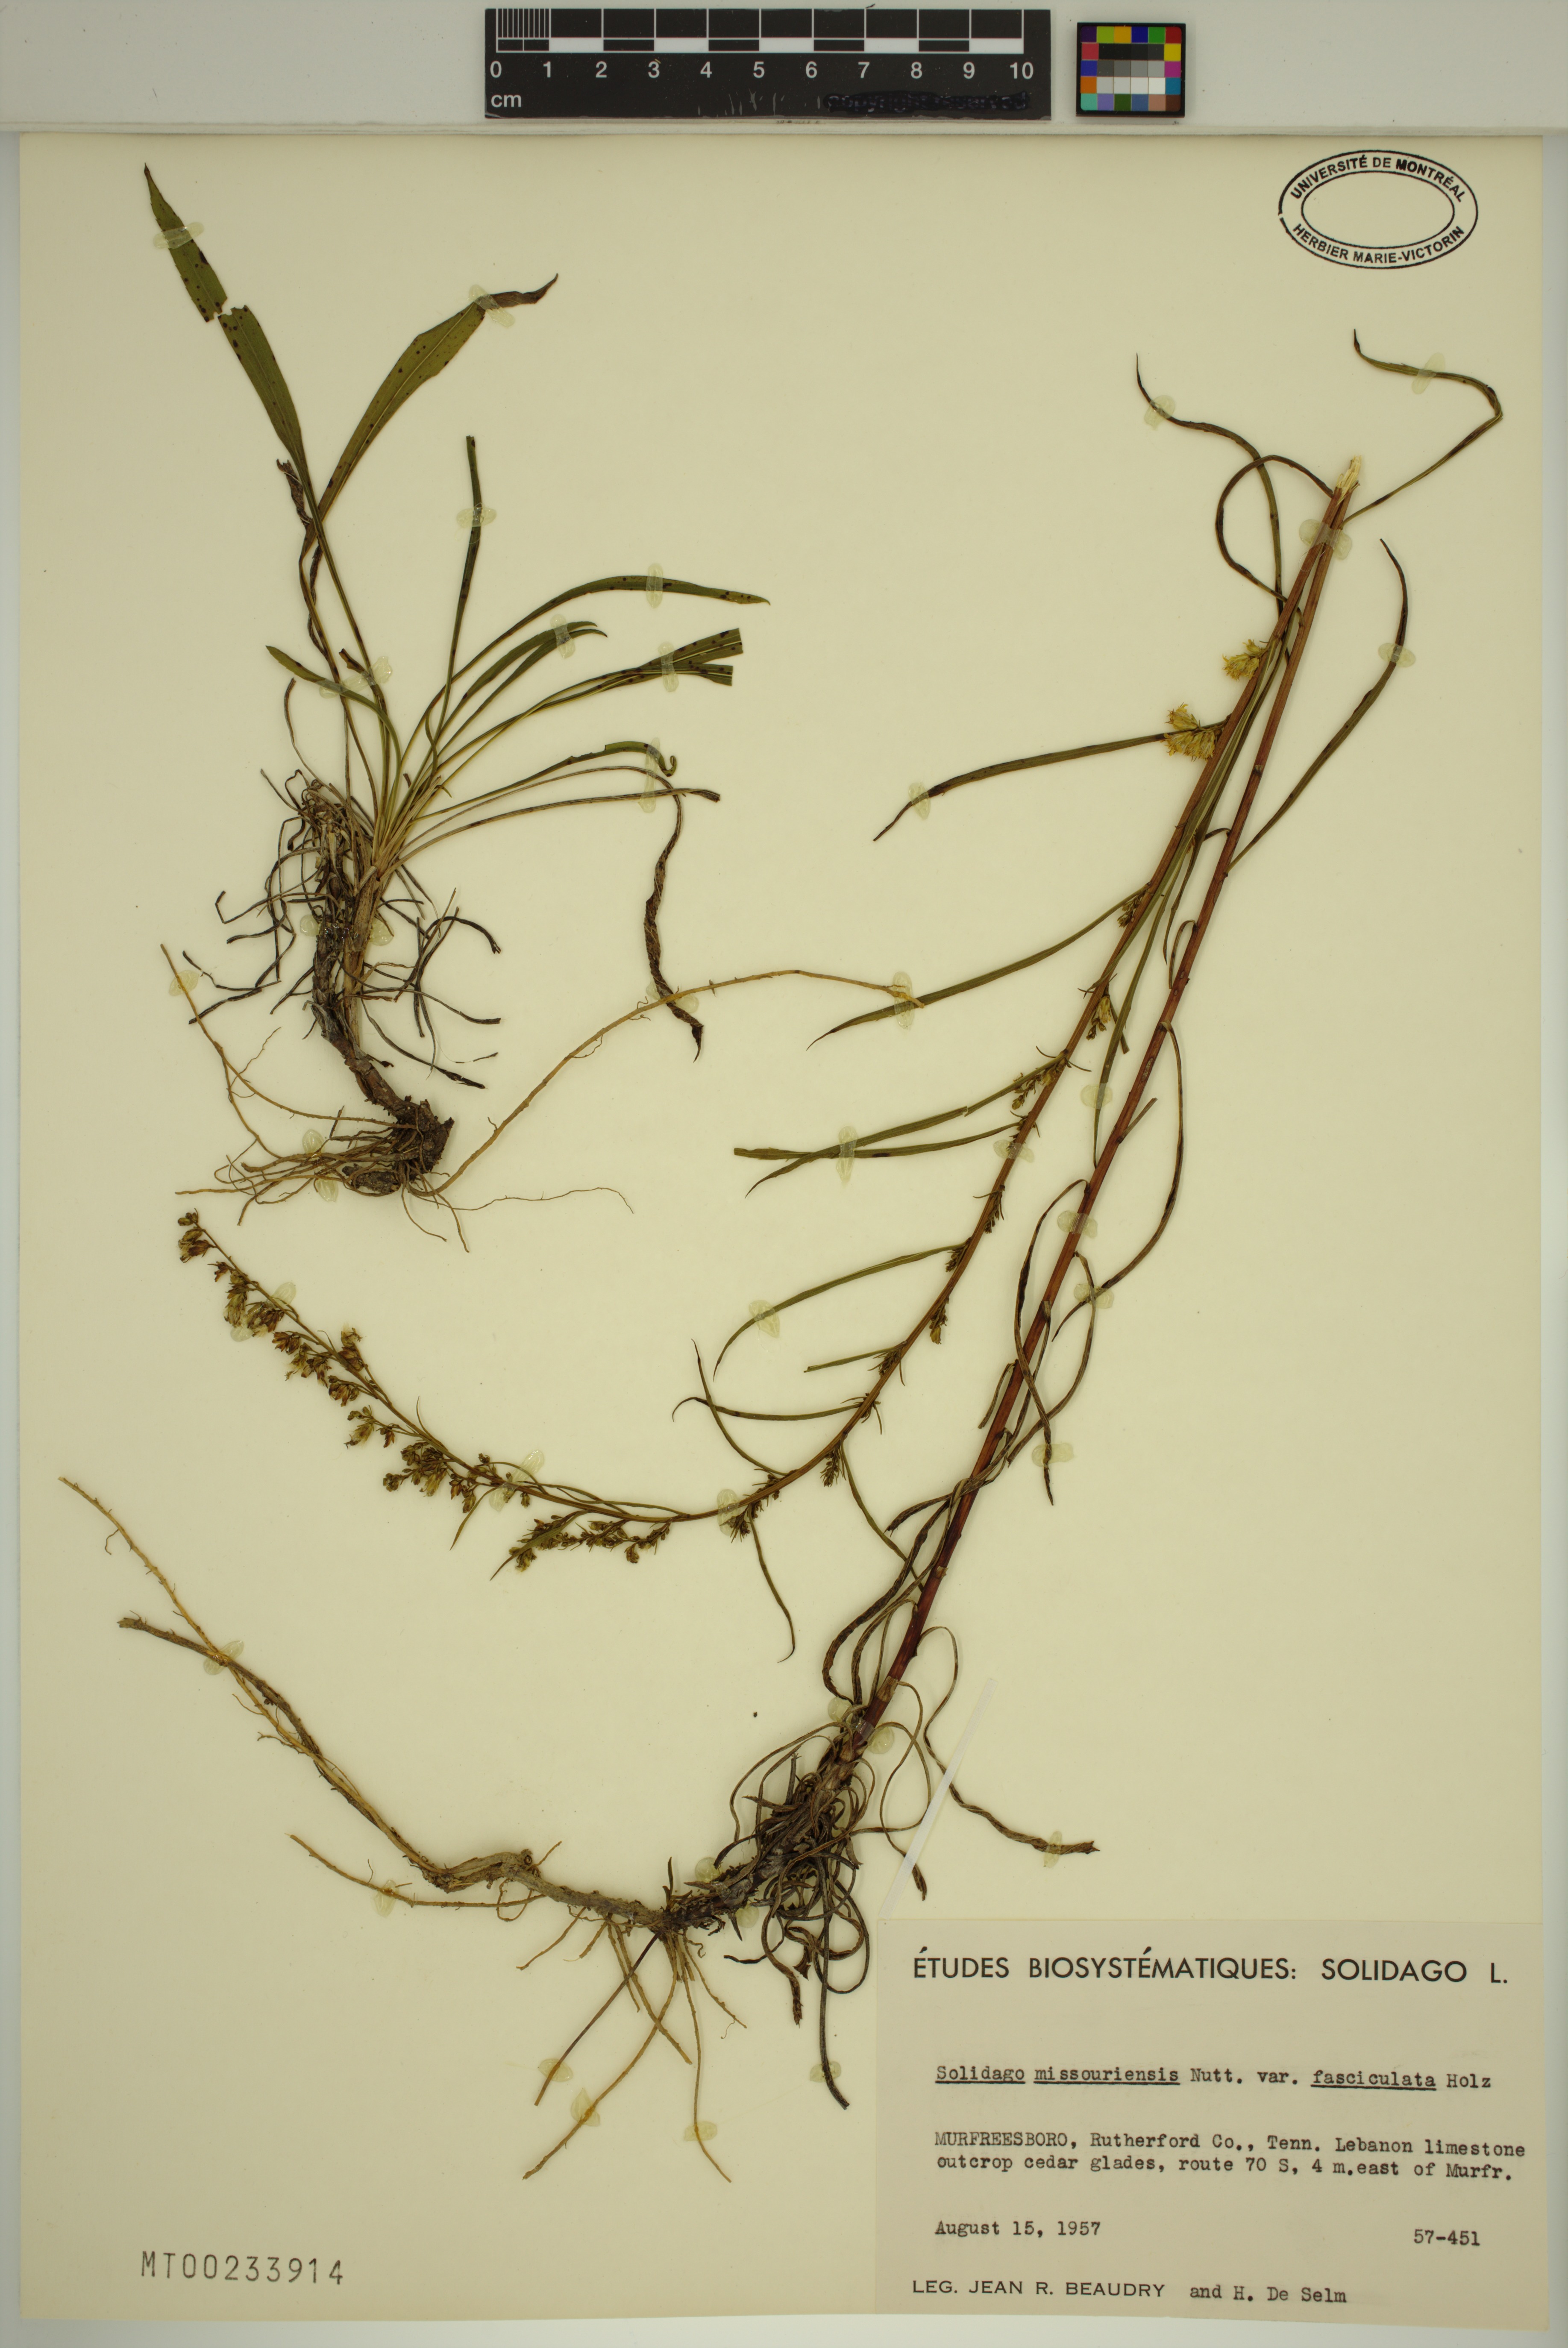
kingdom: Plantae
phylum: Tracheophyta
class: Magnoliopsida
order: Asterales
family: Asteraceae
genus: Solidago
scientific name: Solidago missouriensis
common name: Prairie goldenrod
